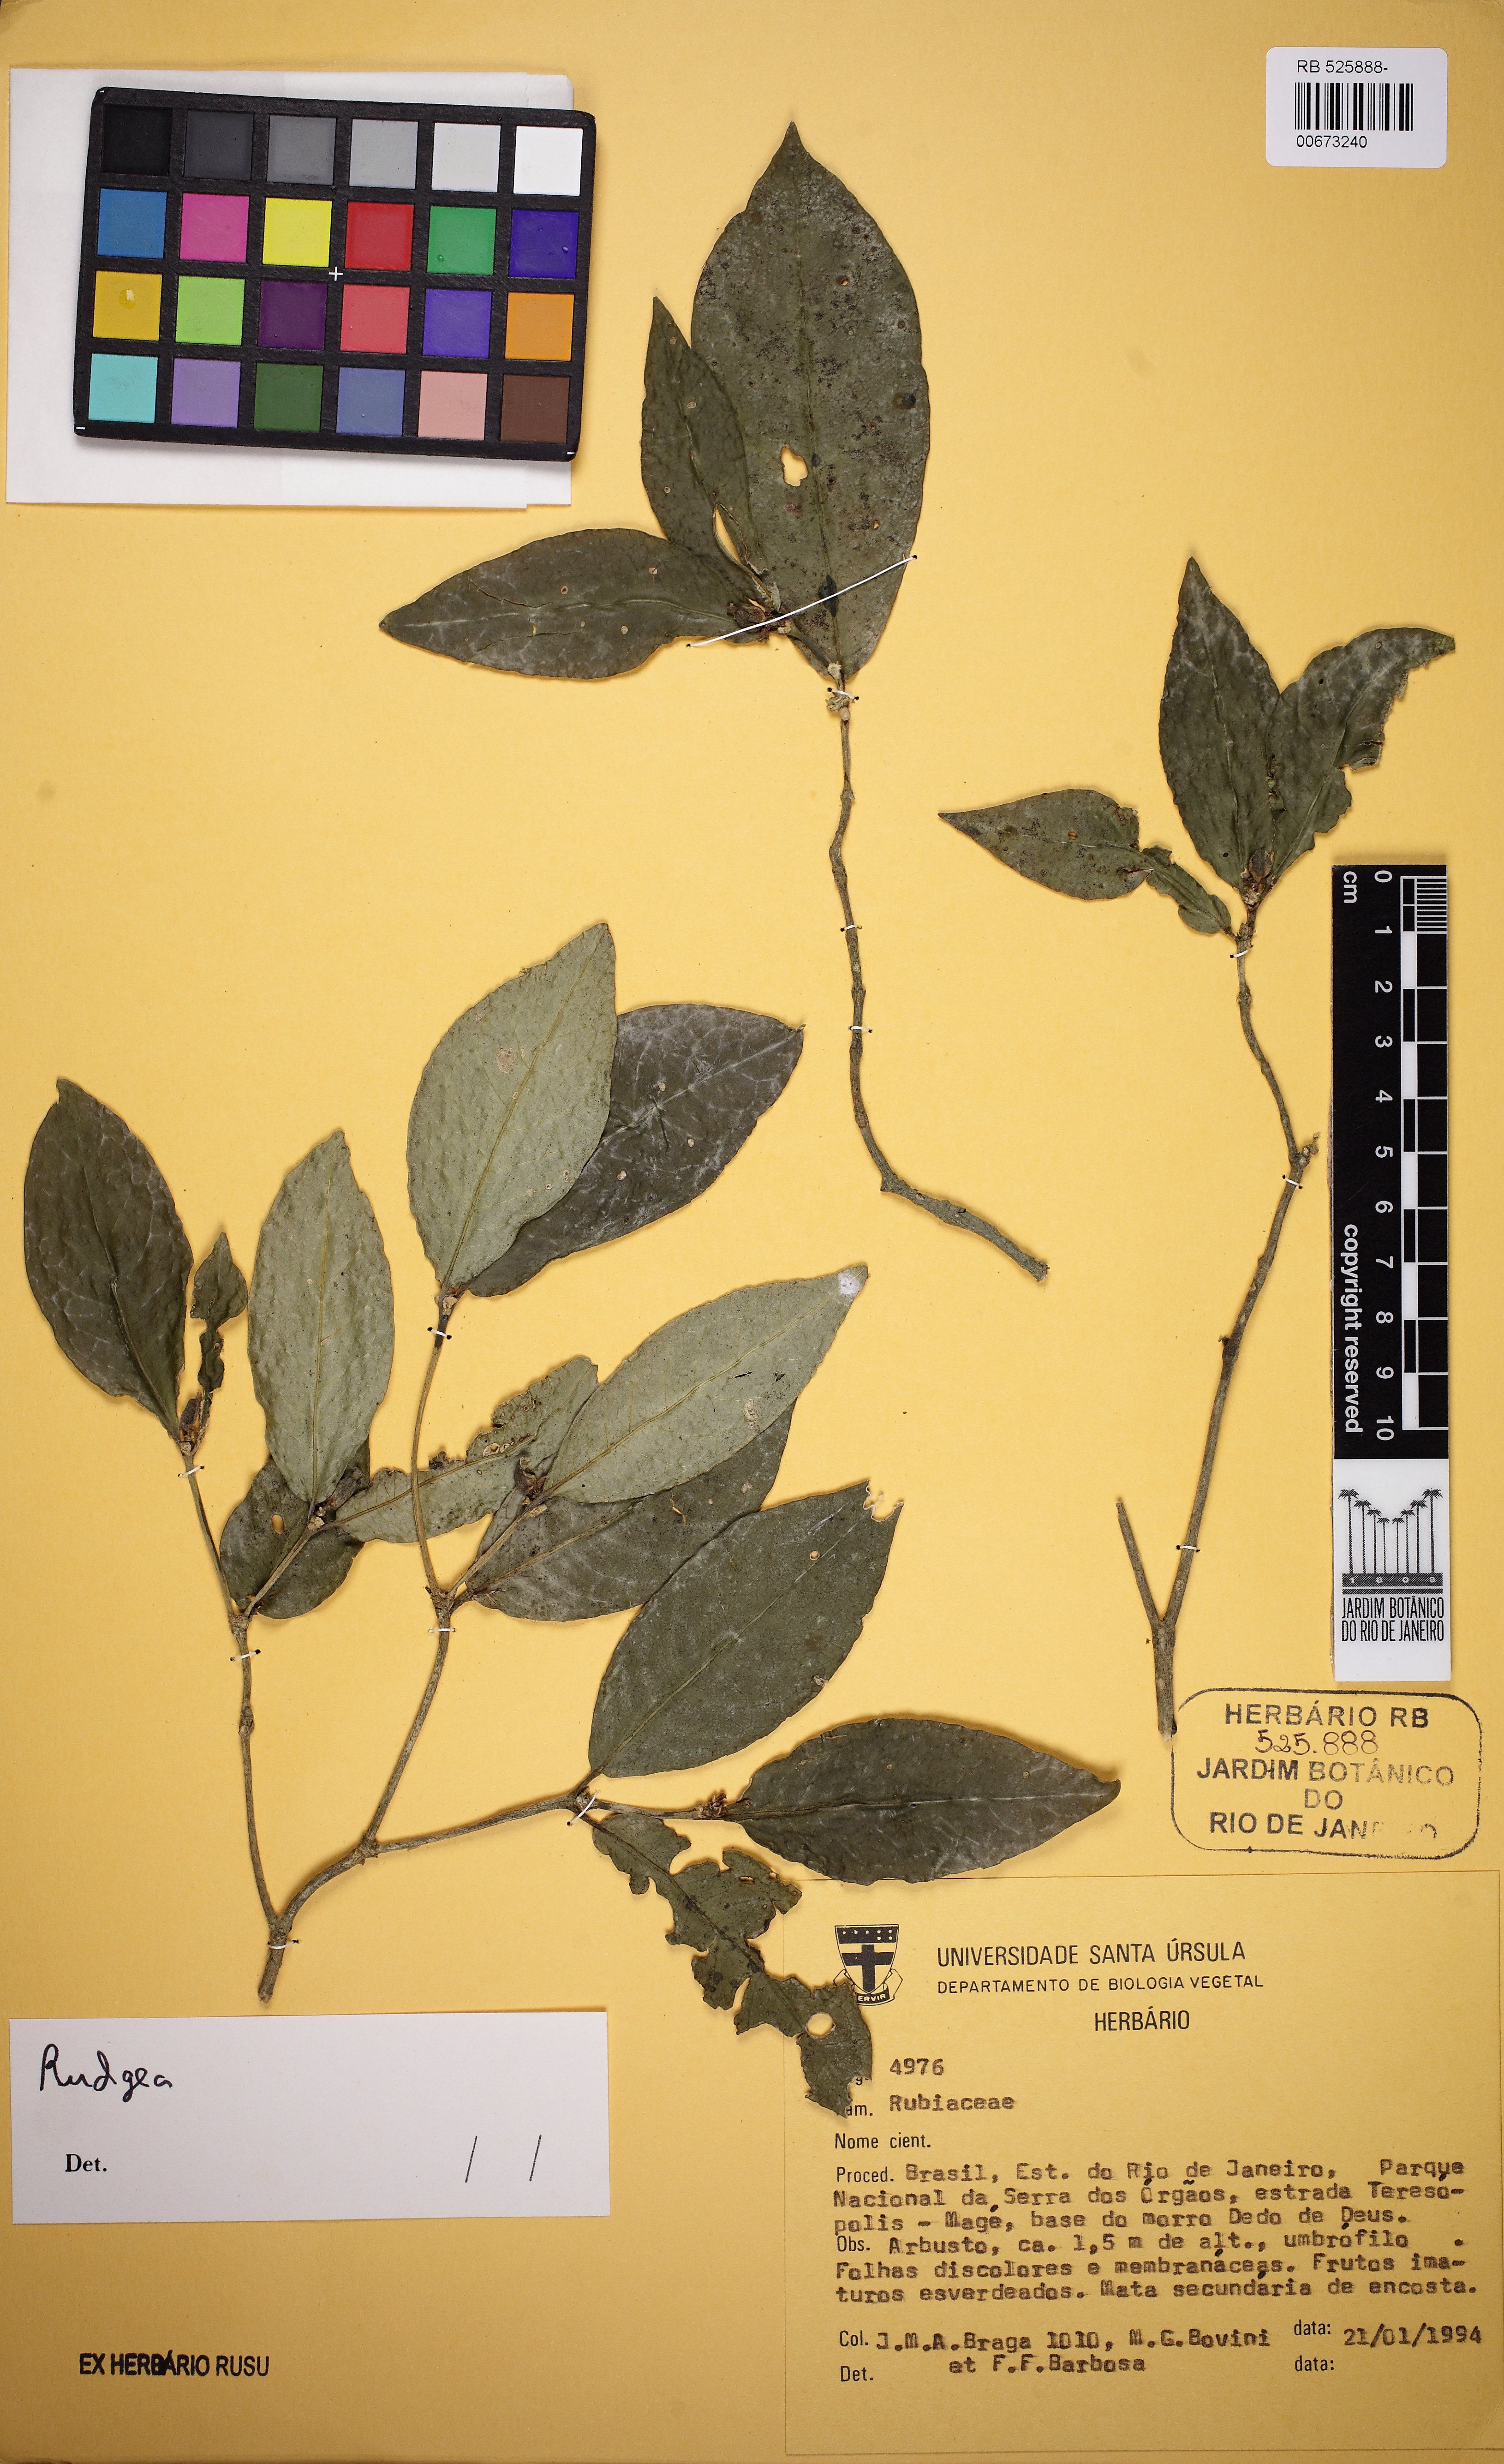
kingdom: Plantae
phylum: Tracheophyta
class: Magnoliopsida
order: Gentianales
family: Rubiaceae
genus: Rudgea
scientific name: Rudgea
